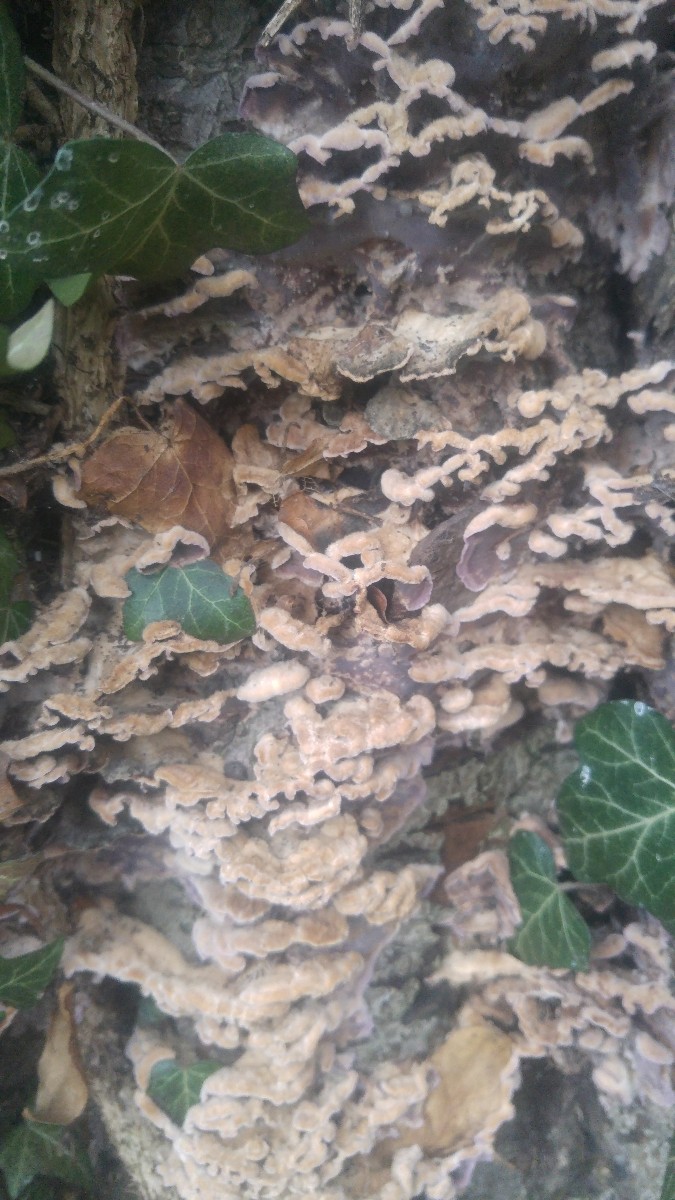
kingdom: Fungi
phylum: Basidiomycota
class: Agaricomycetes
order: Agaricales
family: Cyphellaceae
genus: Chondrostereum
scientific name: Chondrostereum purpureum
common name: purpurlædersvamp
